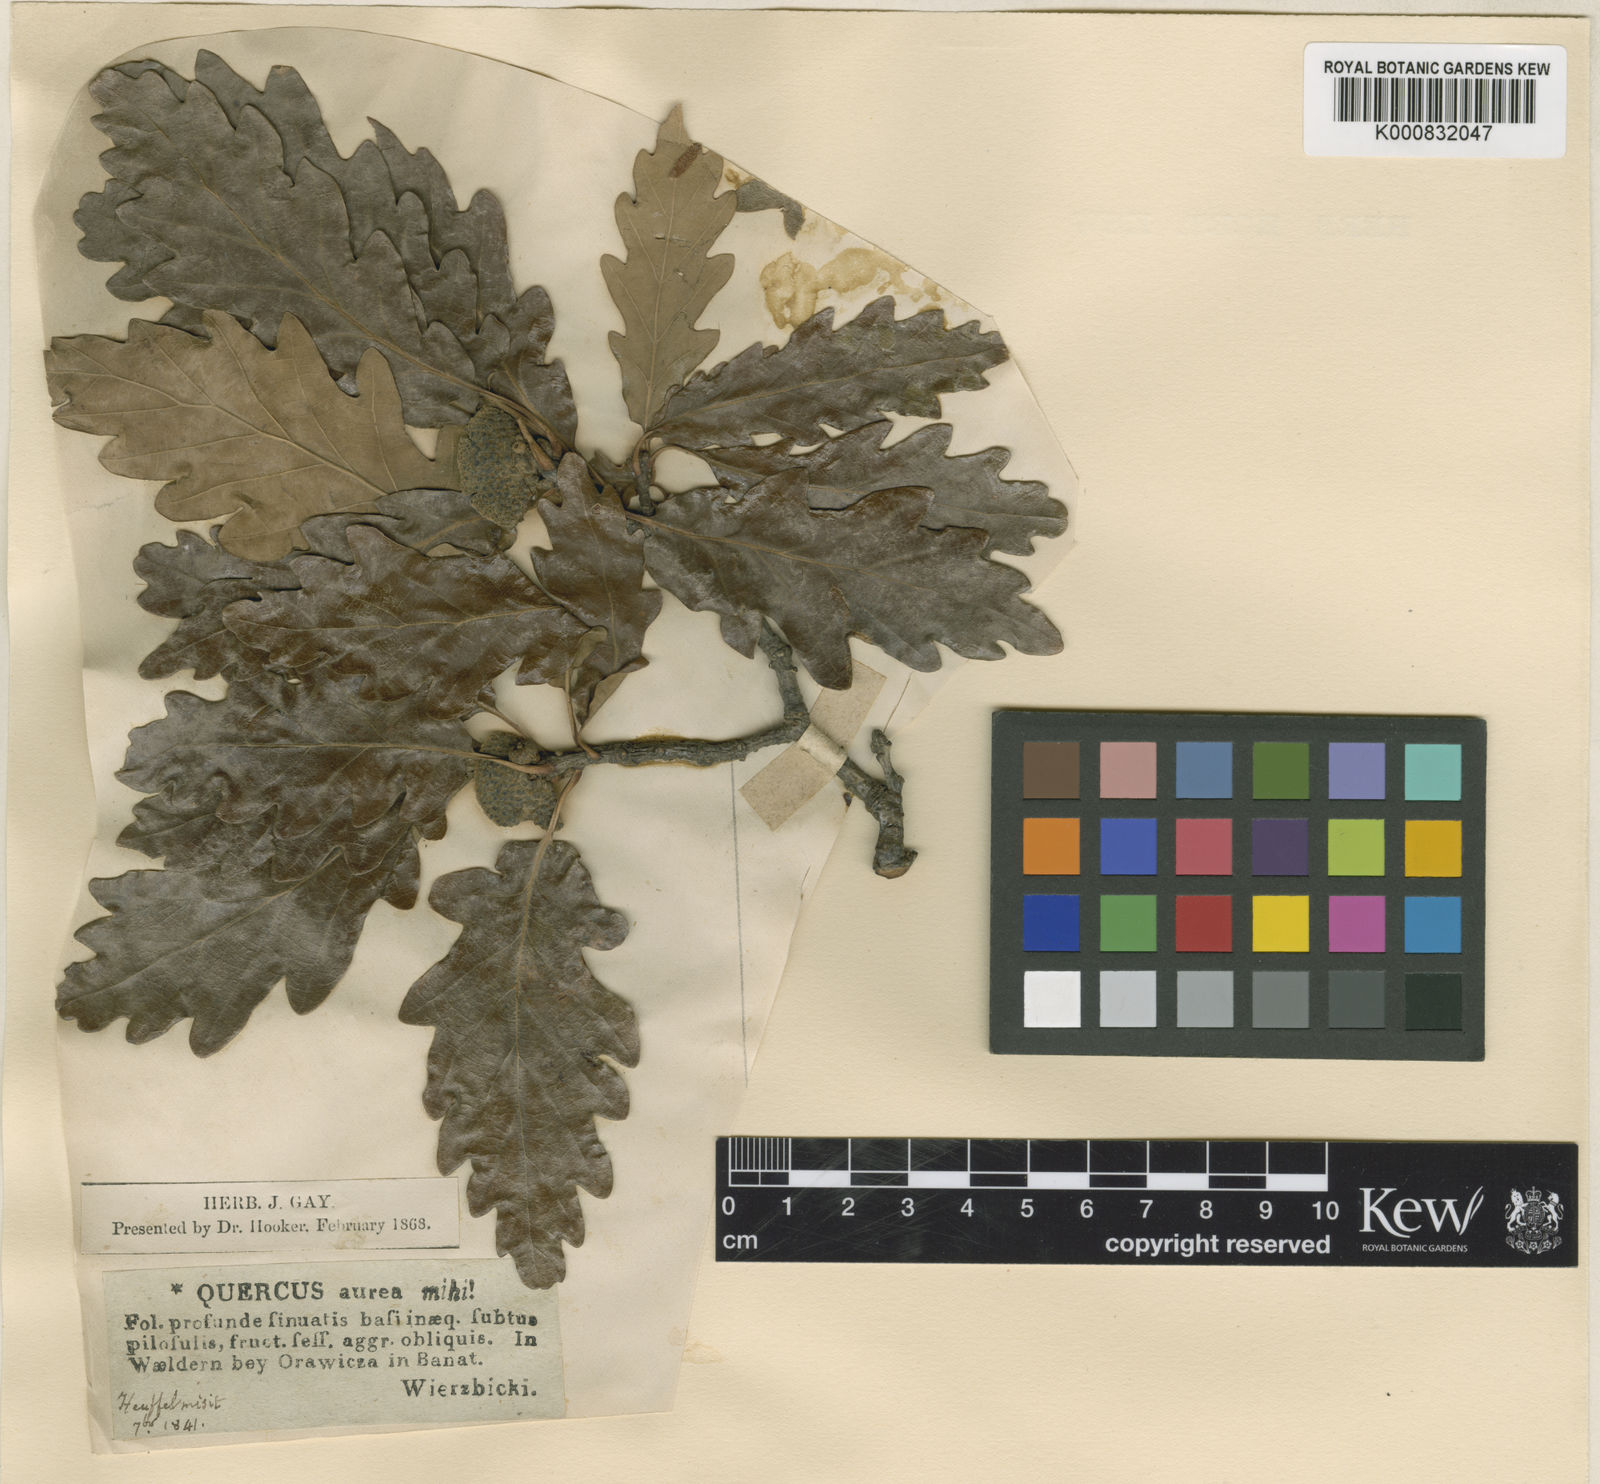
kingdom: Plantae
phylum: Tracheophyta
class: Magnoliopsida
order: Fagales
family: Fagaceae
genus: Quercus
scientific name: Quercus petraea
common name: Sessile oak
